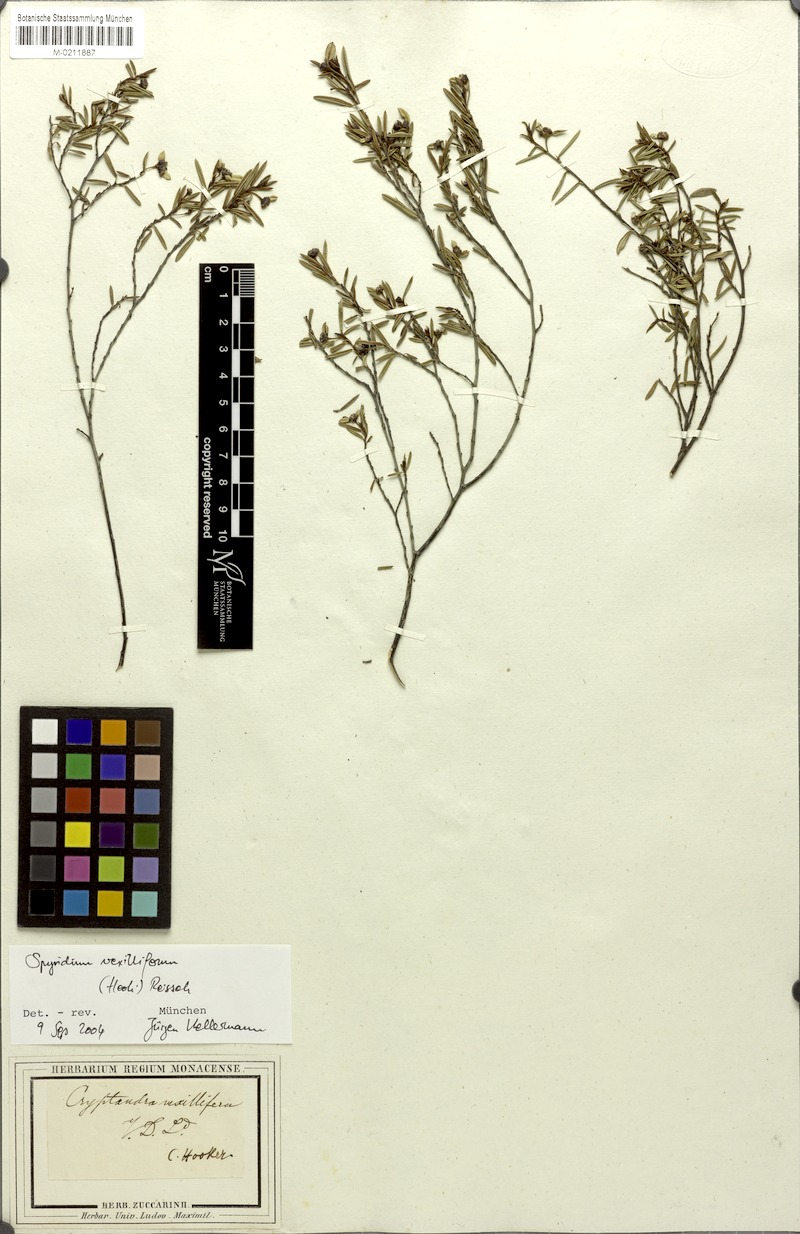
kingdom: Plantae
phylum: Tracheophyta
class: Magnoliopsida
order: Rosales
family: Rhamnaceae
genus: Spyridium
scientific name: Spyridium vexilliferum
